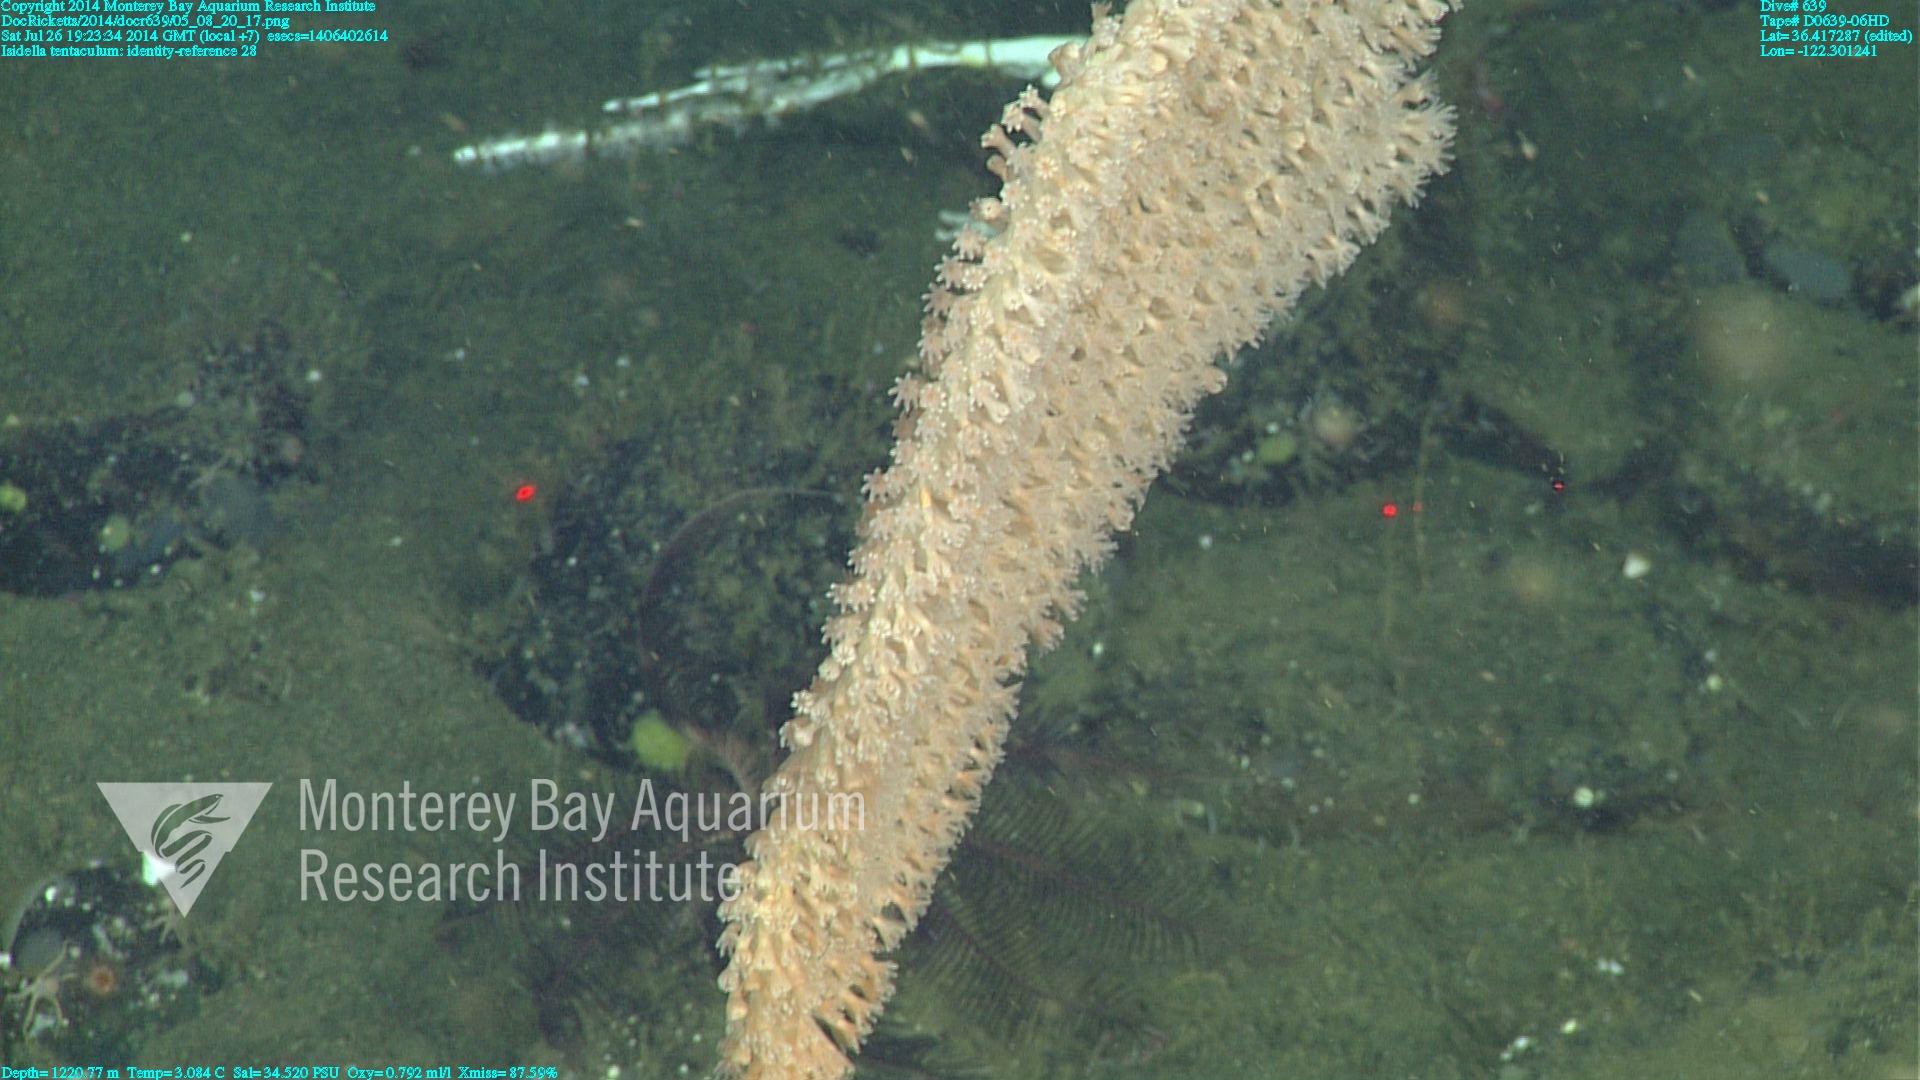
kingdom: Animalia
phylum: Cnidaria
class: Anthozoa
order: Scleralcyonacea
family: Keratoisididae
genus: Isidella
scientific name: Isidella tentaculum
